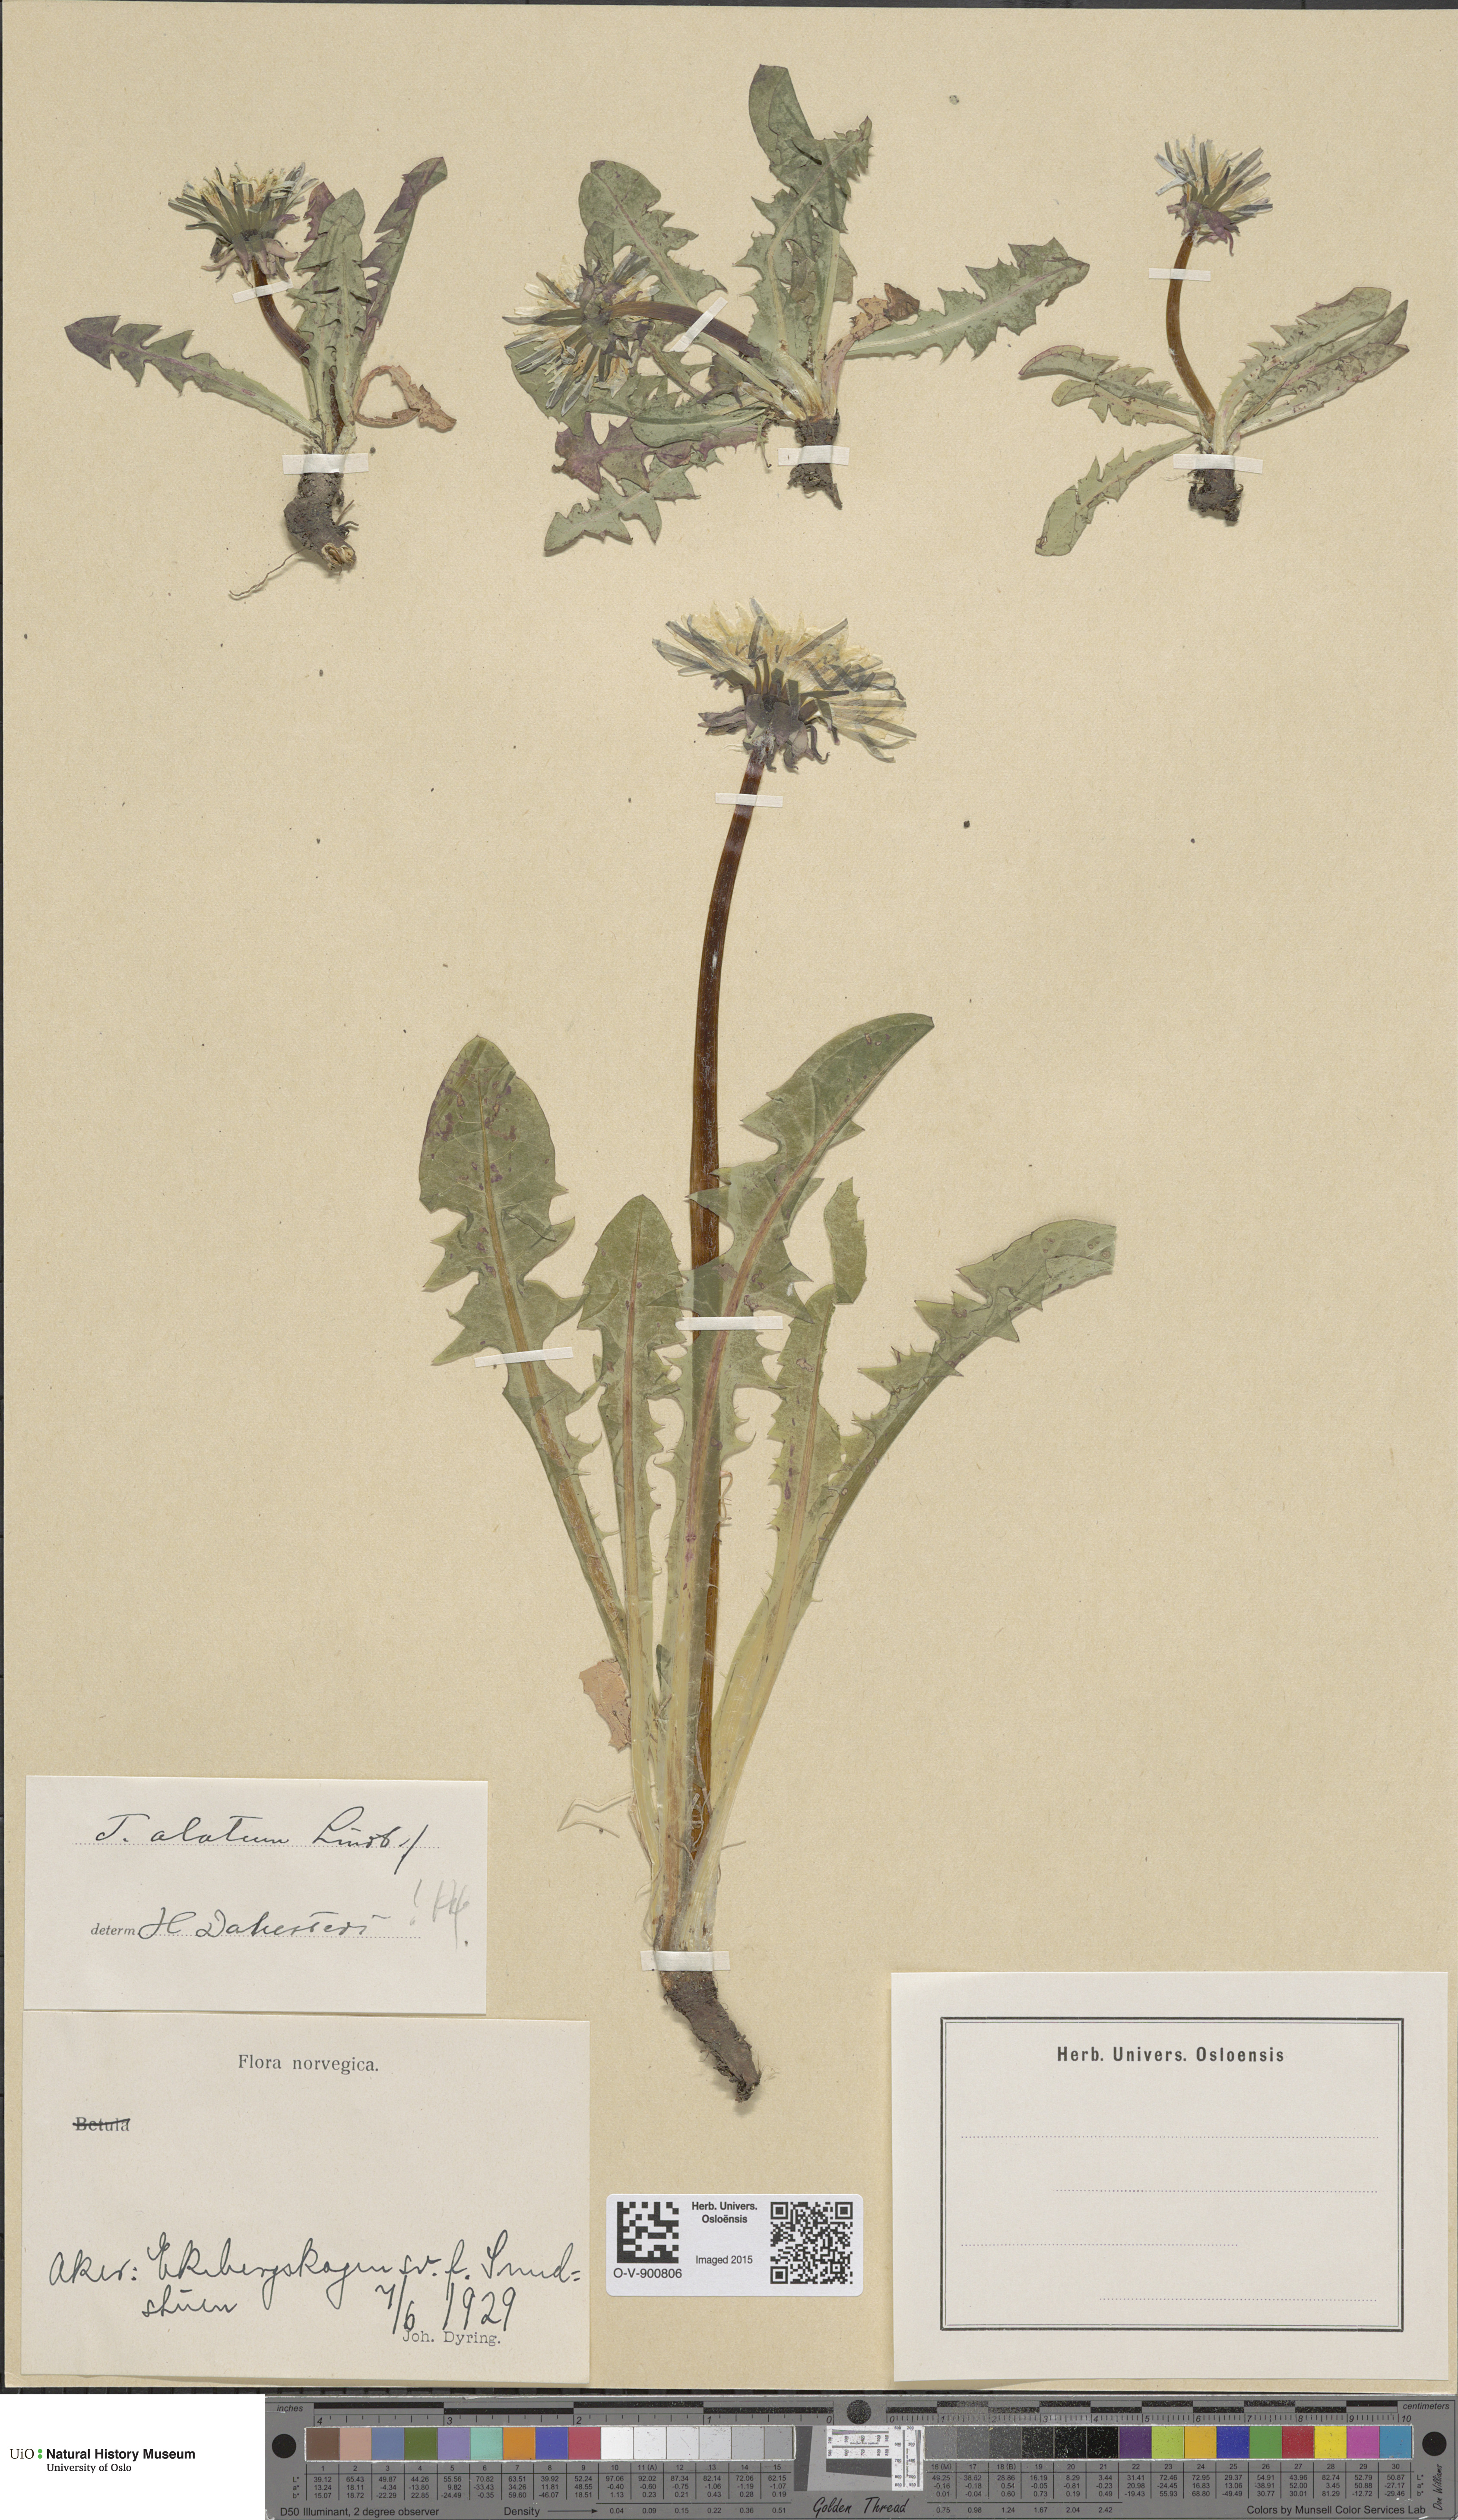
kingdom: Plantae
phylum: Tracheophyta
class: Magnoliopsida
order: Asterales
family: Asteraceae
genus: Taraxacum
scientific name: Taraxacum alatum
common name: Green dandelion
